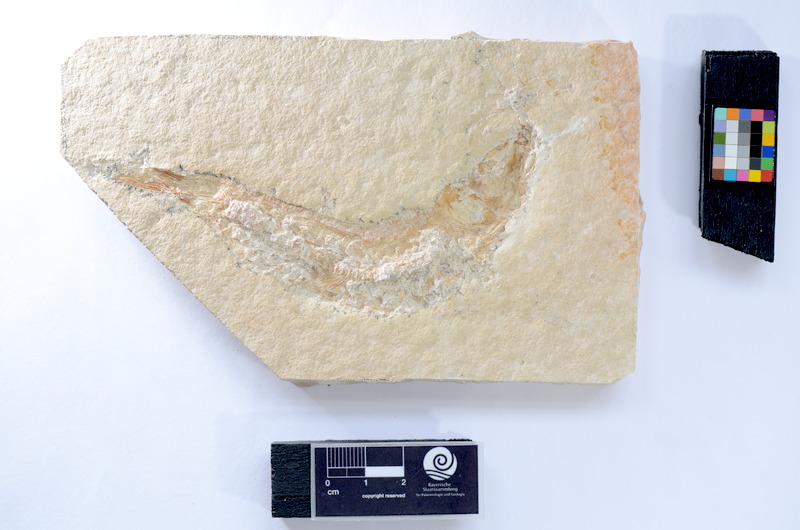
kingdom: Animalia
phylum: Chordata
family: Ascalaboidae
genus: Tharsis
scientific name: Tharsis dubius
